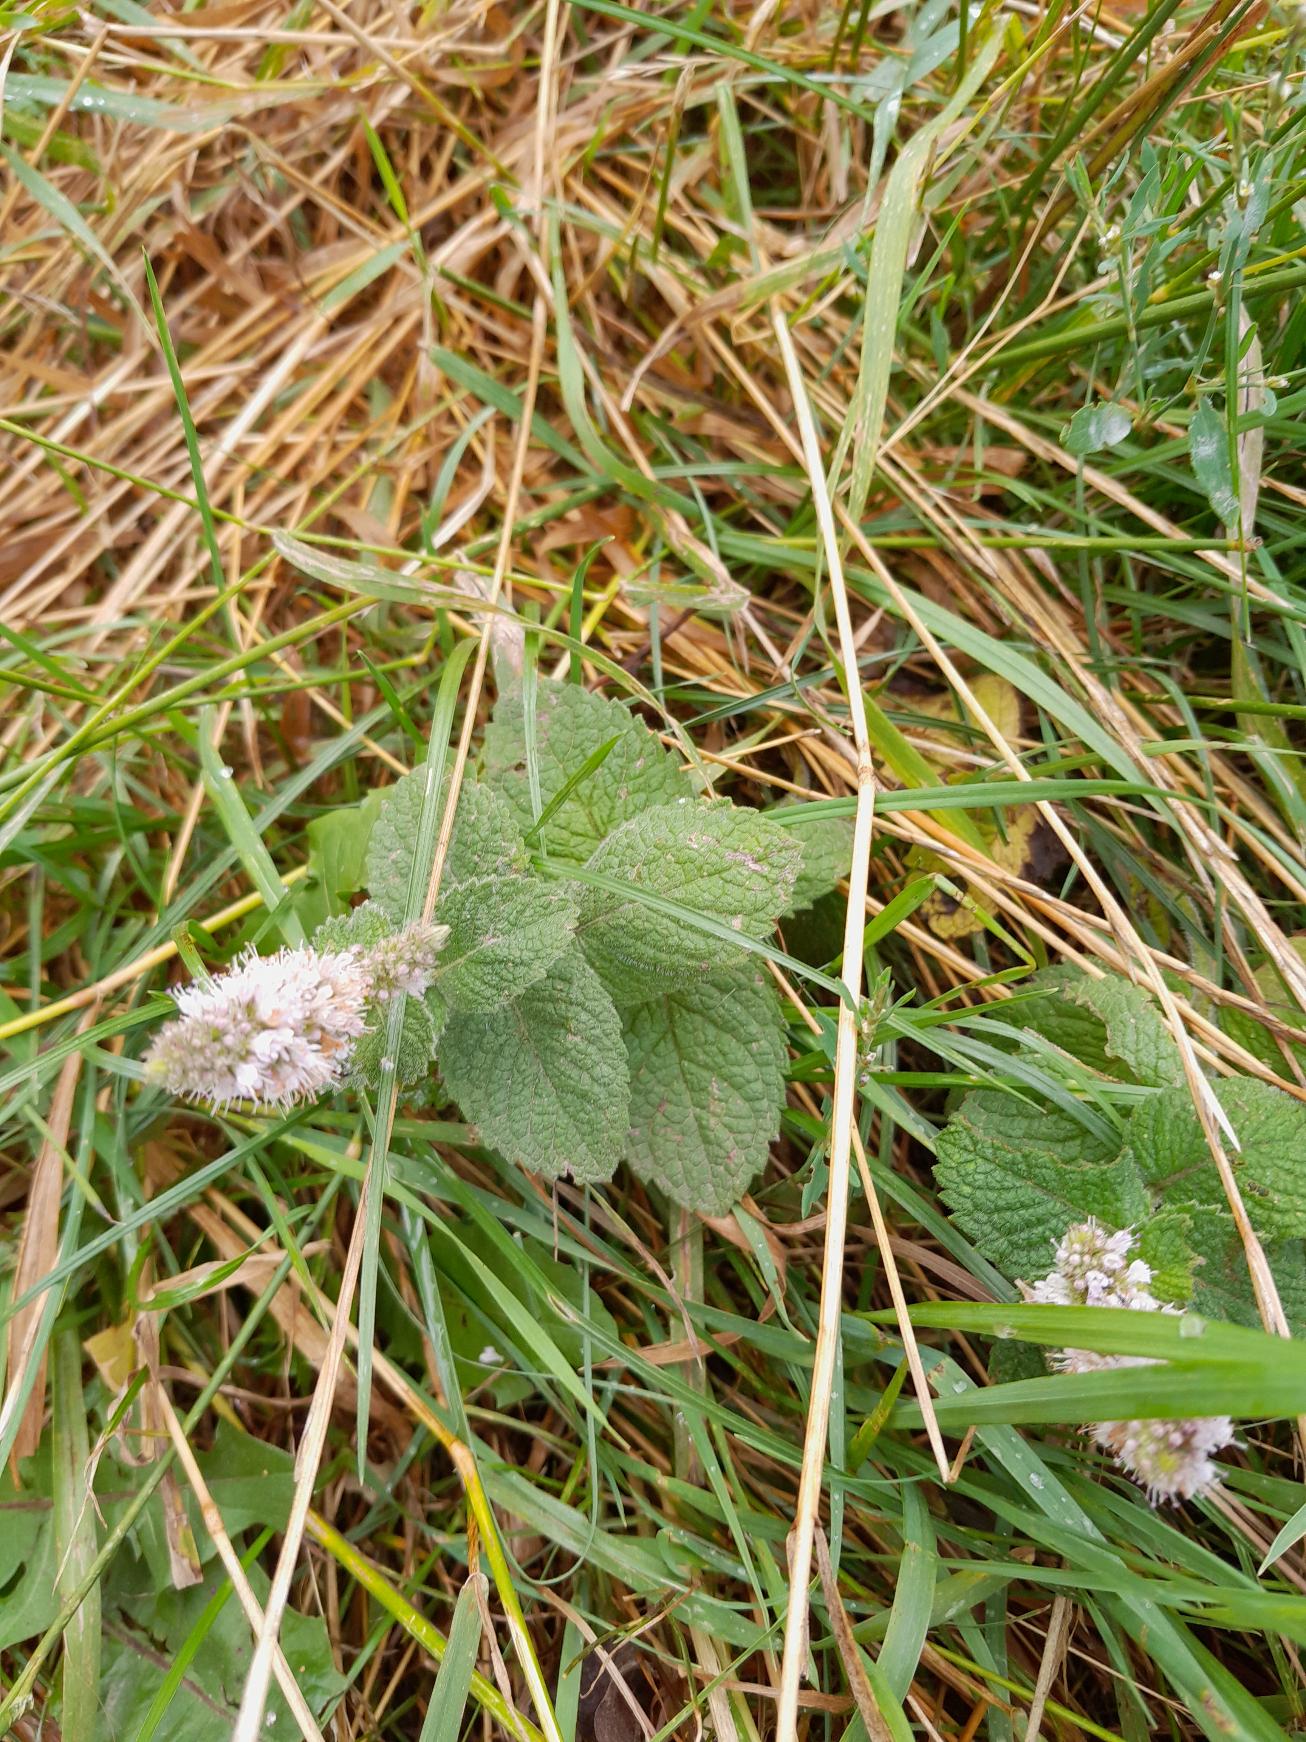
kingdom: Plantae
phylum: Tracheophyta
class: Magnoliopsida
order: Lamiales
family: Lamiaceae
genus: Mentha
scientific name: Mentha rotundifolia
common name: Grå mynte × rundbladet mynte
